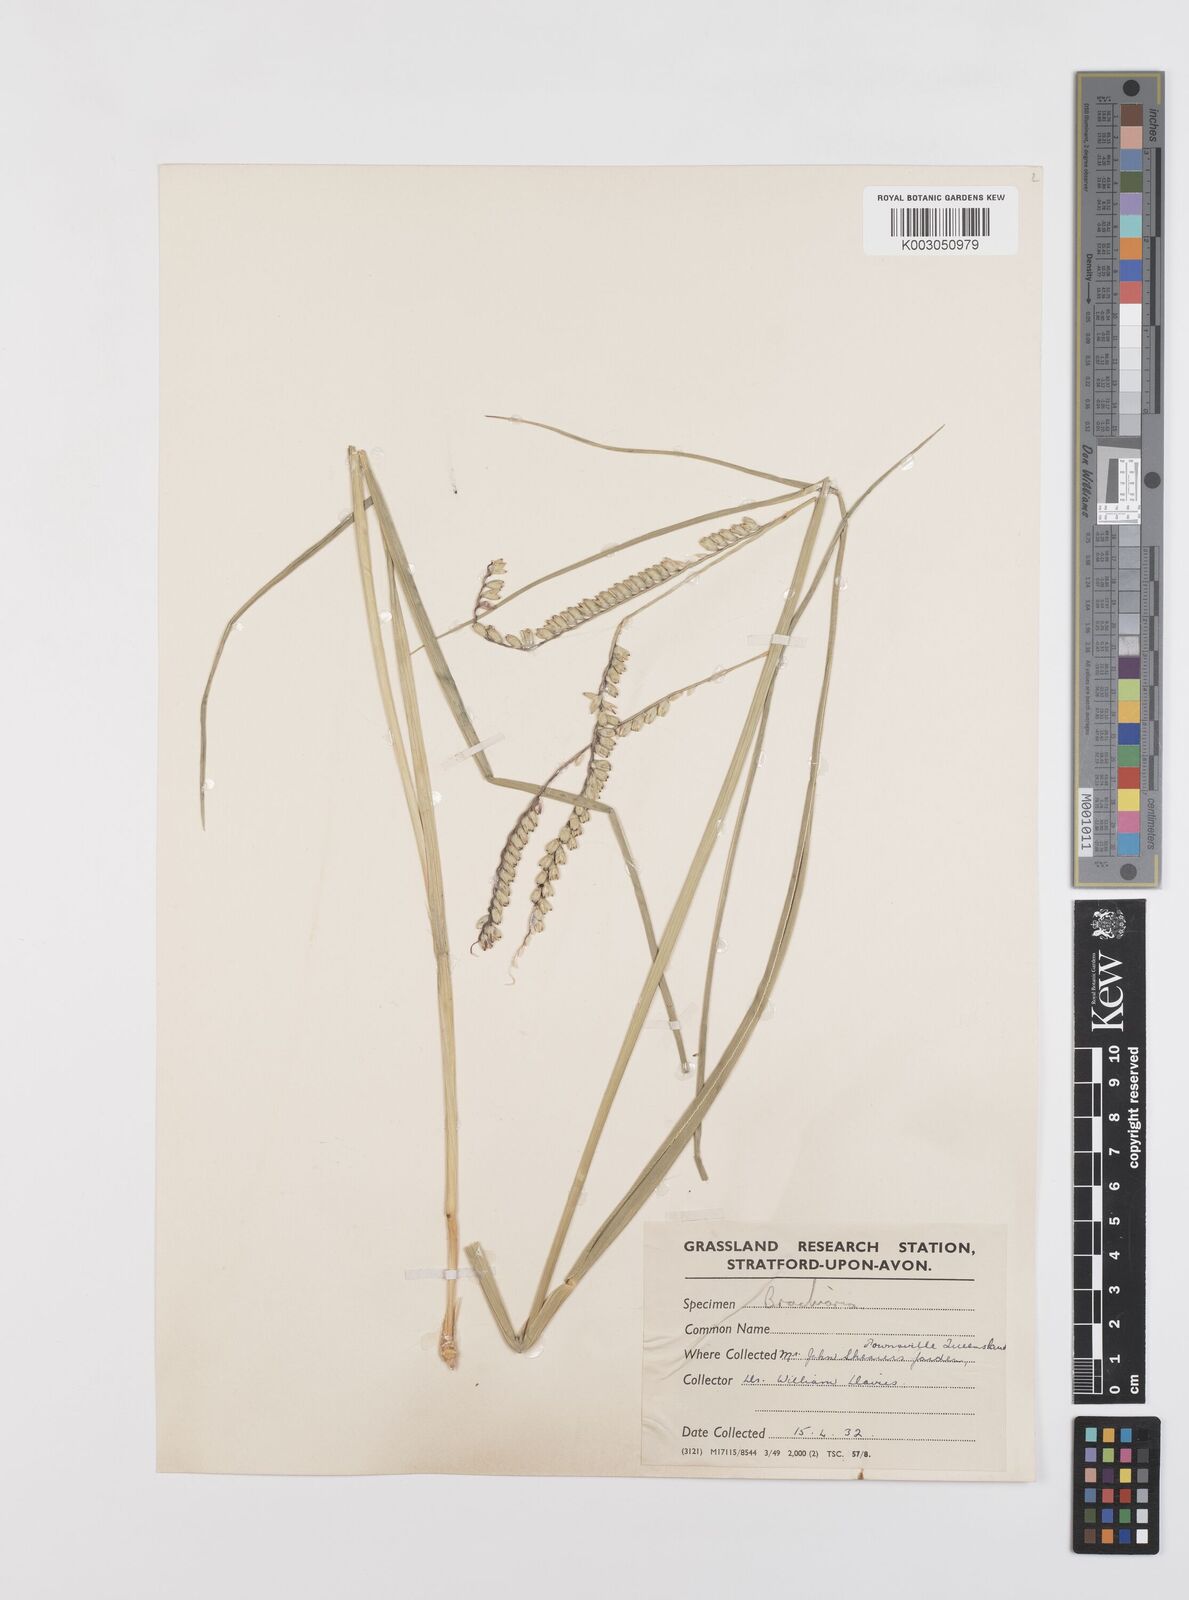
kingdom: Plantae
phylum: Tracheophyta
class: Liliopsida
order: Poales
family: Poaceae
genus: Urochloa
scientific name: Urochloa brizantha
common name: Palisade signalgrass
